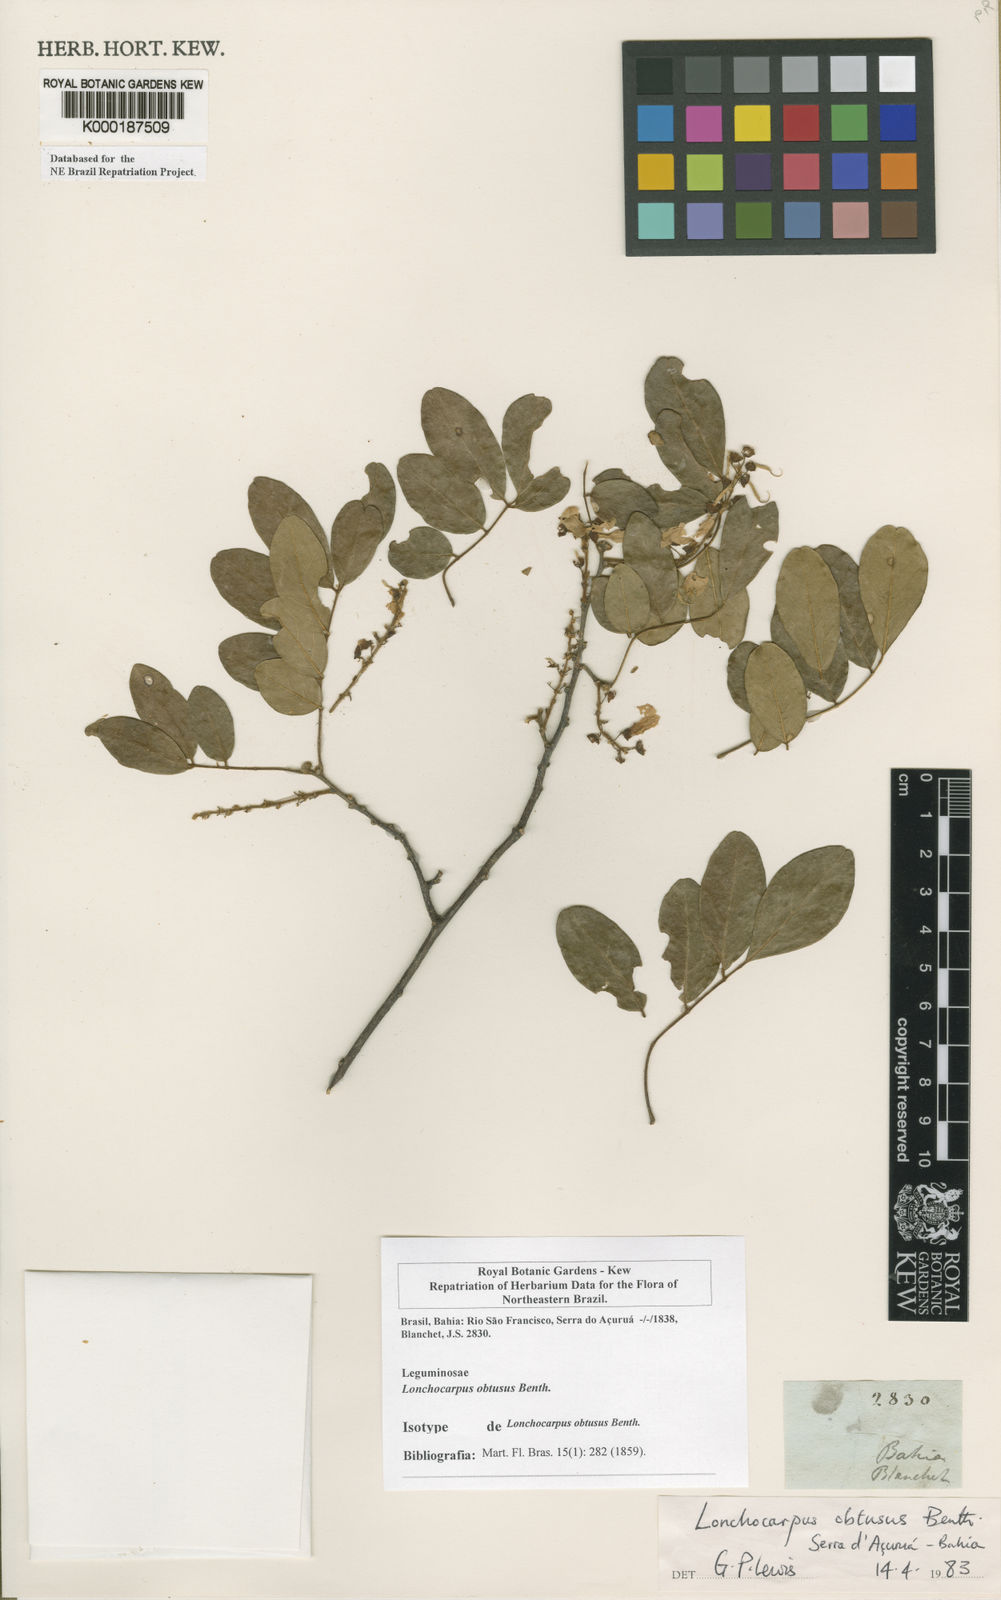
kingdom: Plantae
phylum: Tracheophyta
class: Magnoliopsida
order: Fabales
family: Fabaceae
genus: Muellera
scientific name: Muellera obtusa
